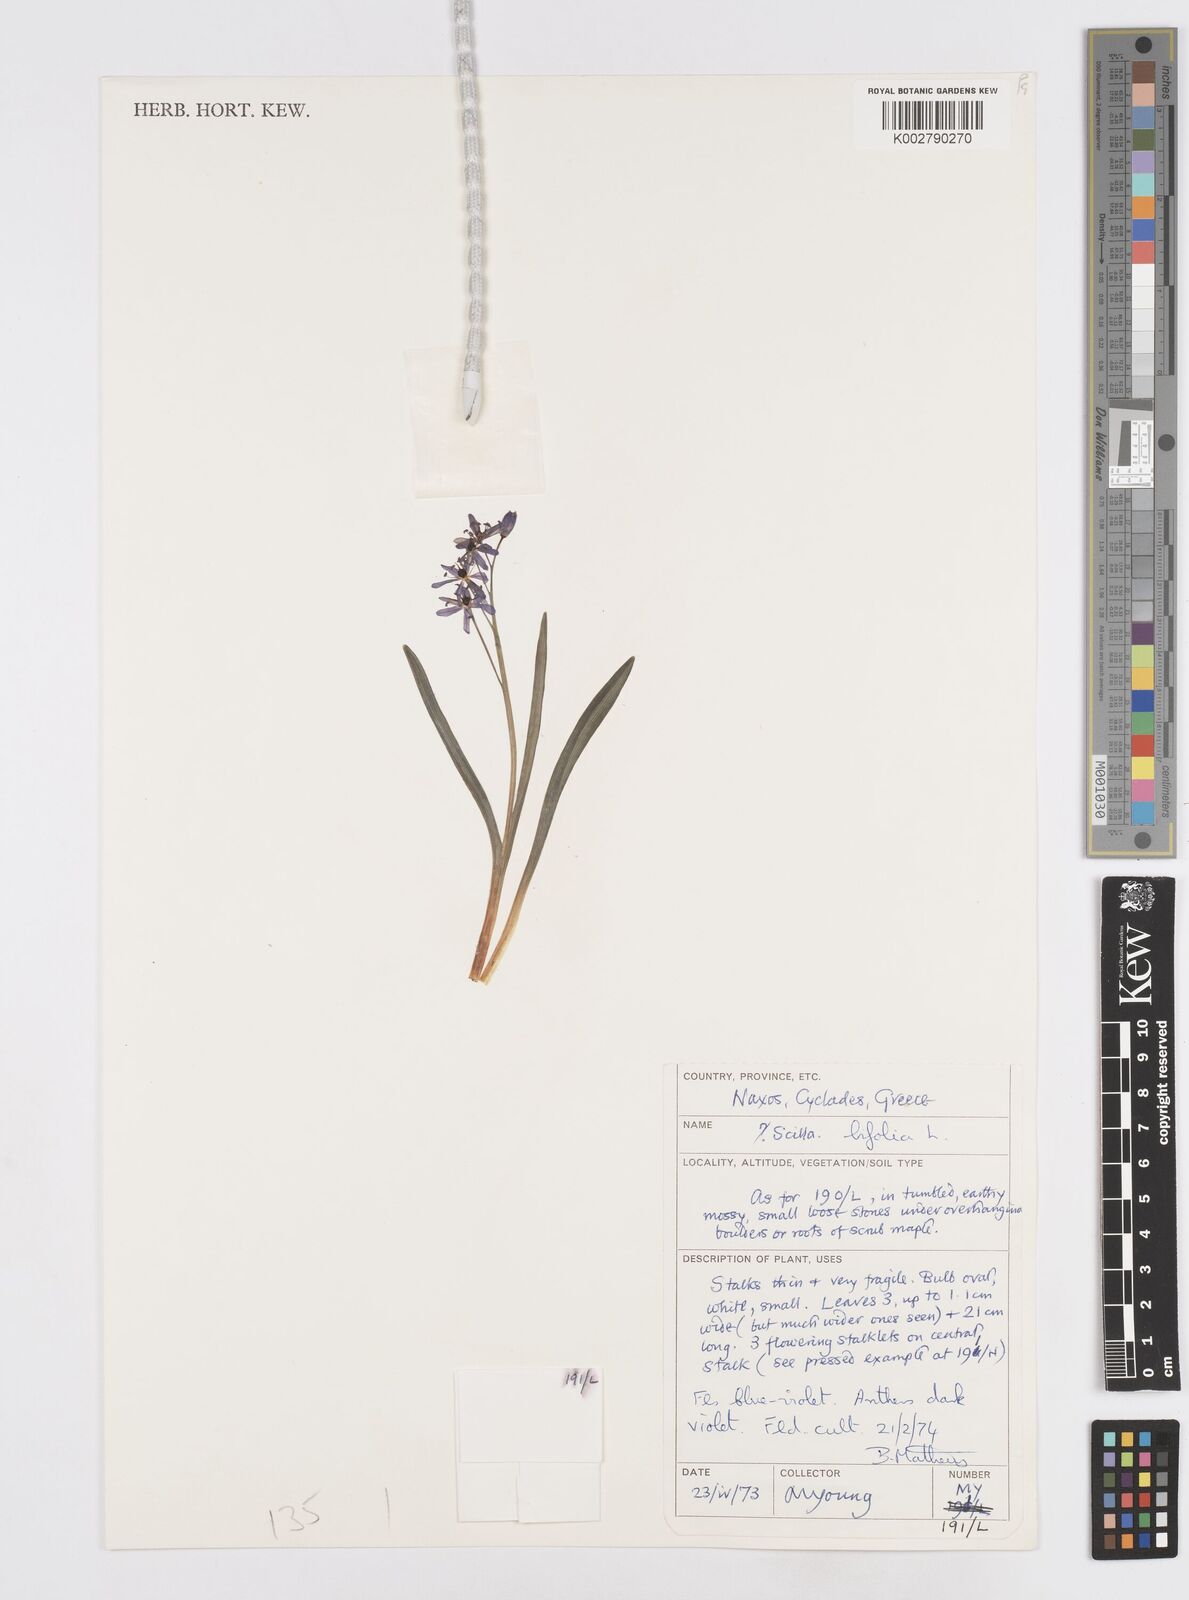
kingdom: Plantae
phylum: Tracheophyta
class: Liliopsida
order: Asparagales
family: Asparagaceae
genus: Scilla
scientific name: Scilla bifolia
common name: Alpine squill
